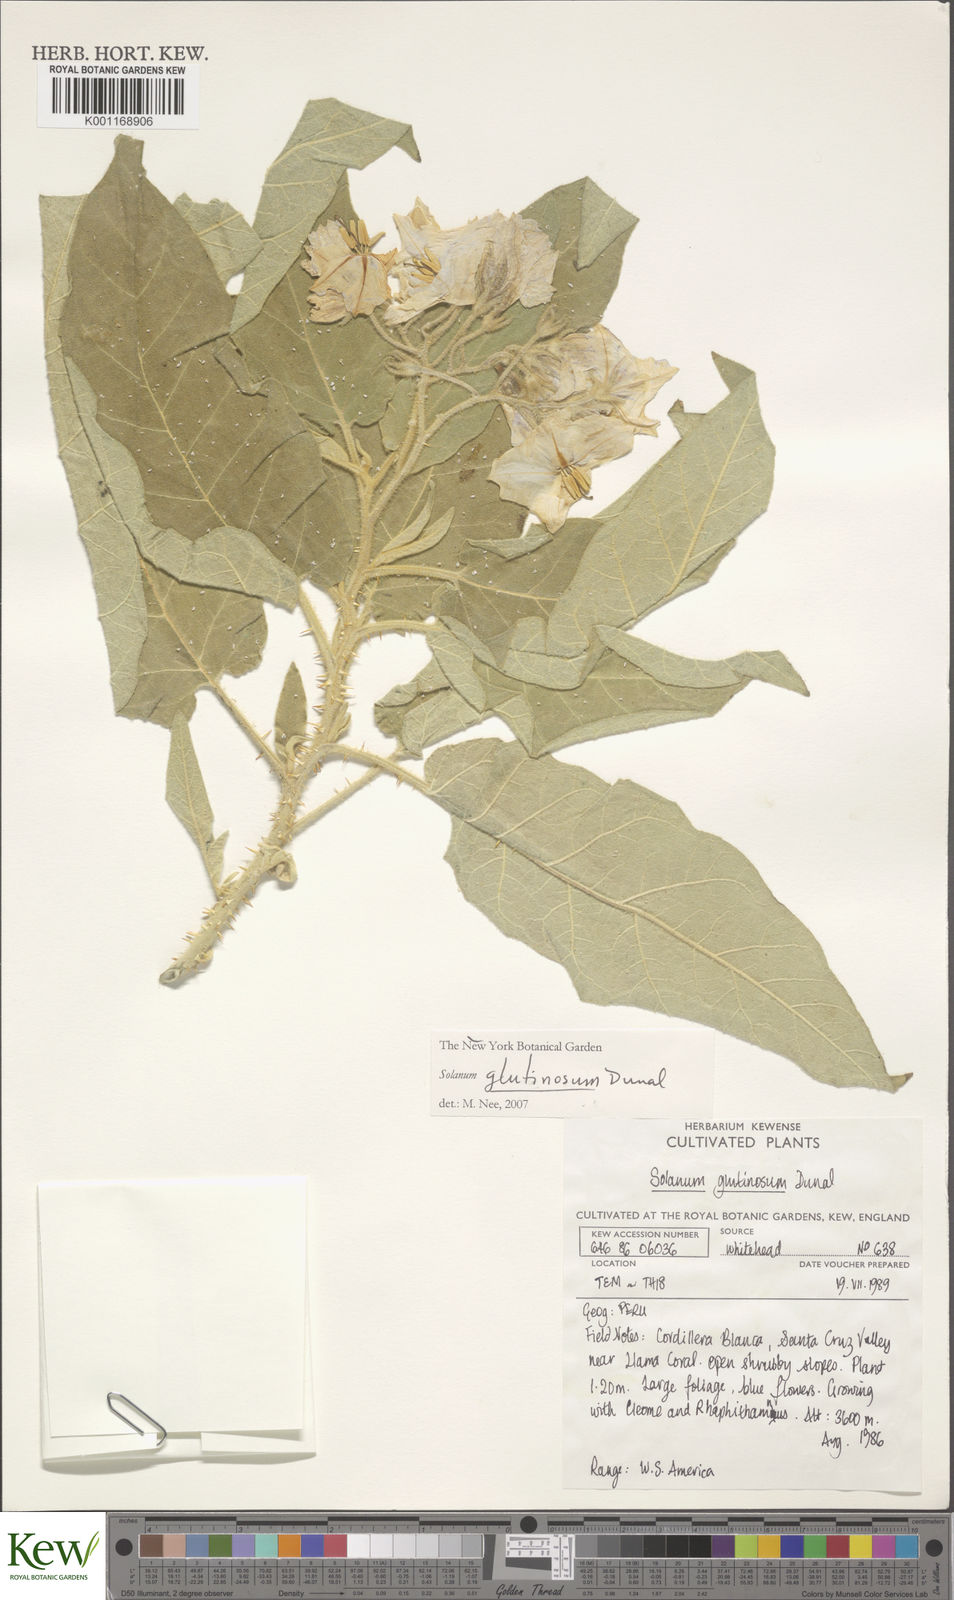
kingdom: Plantae
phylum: Tracheophyta
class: Magnoliopsida
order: Solanales
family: Solanaceae
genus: Solanum
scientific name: Solanum glutinosum
